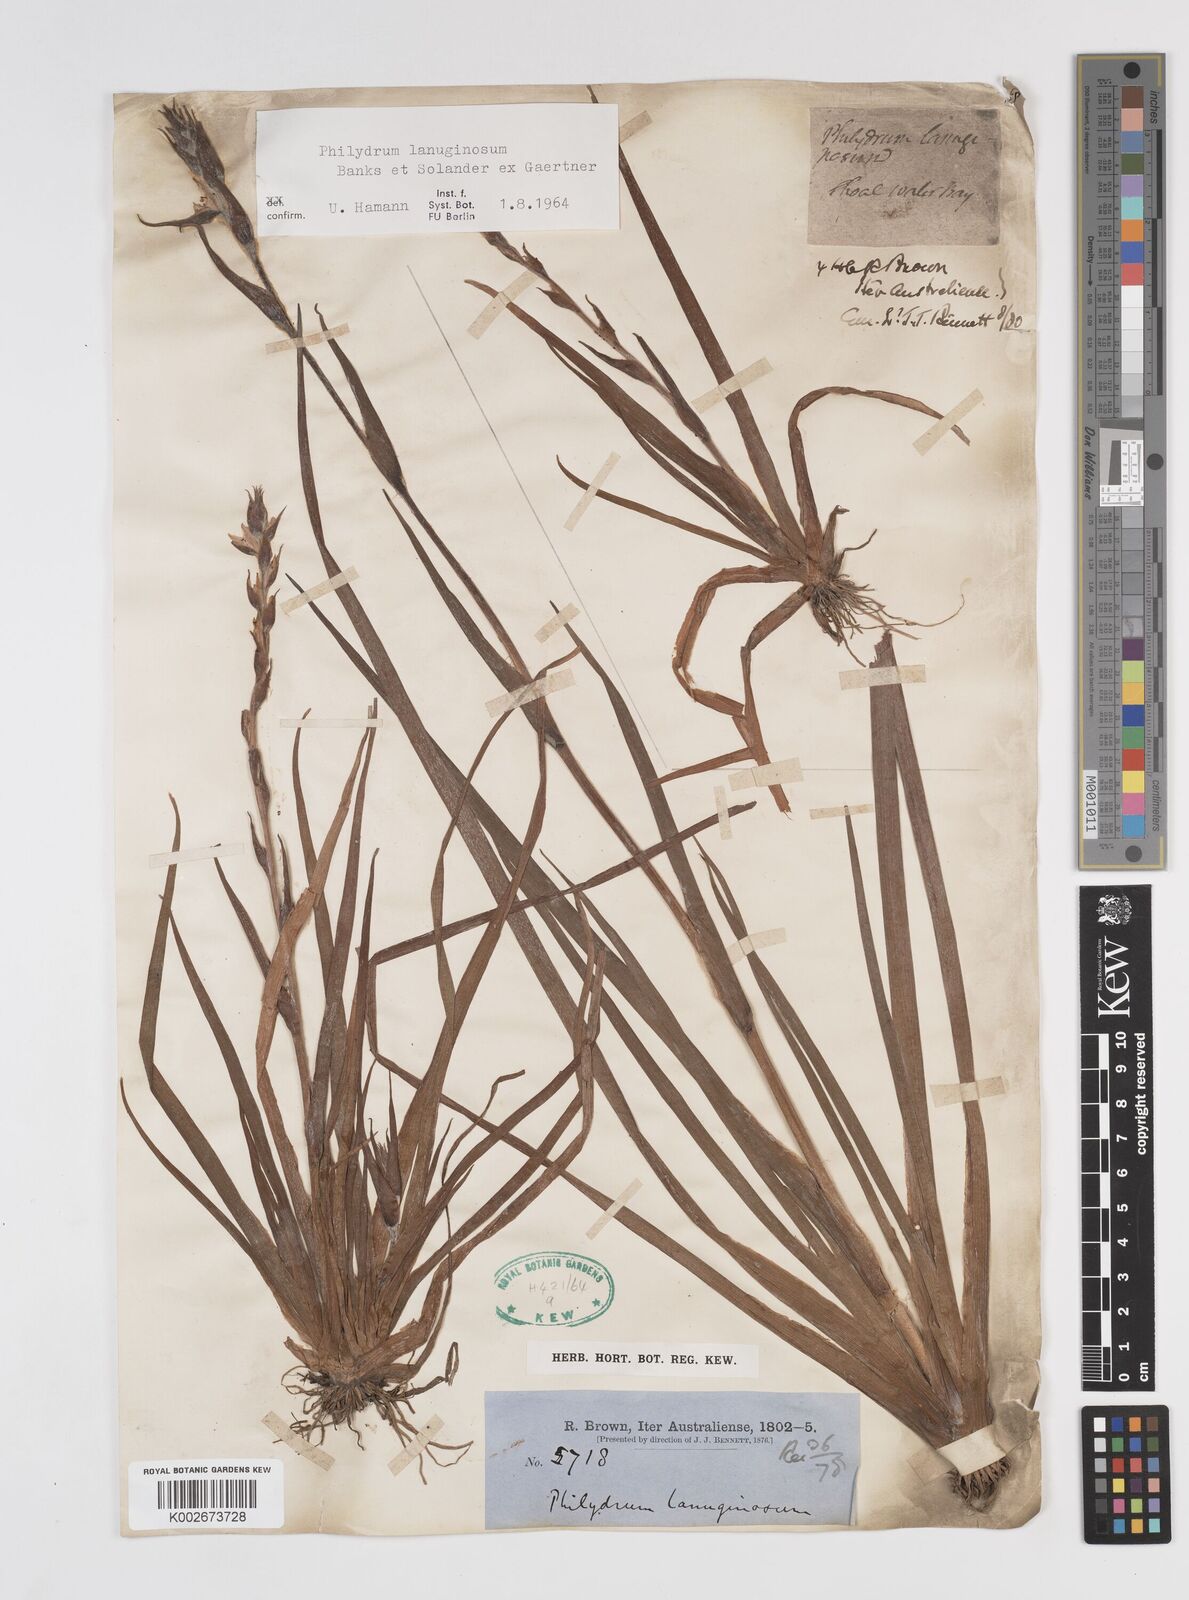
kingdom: Plantae
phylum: Tracheophyta
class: Liliopsida
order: Commelinales
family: Philydraceae
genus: Philydrum
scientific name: Philydrum lanuginosum
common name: Woolly frog's mouth
